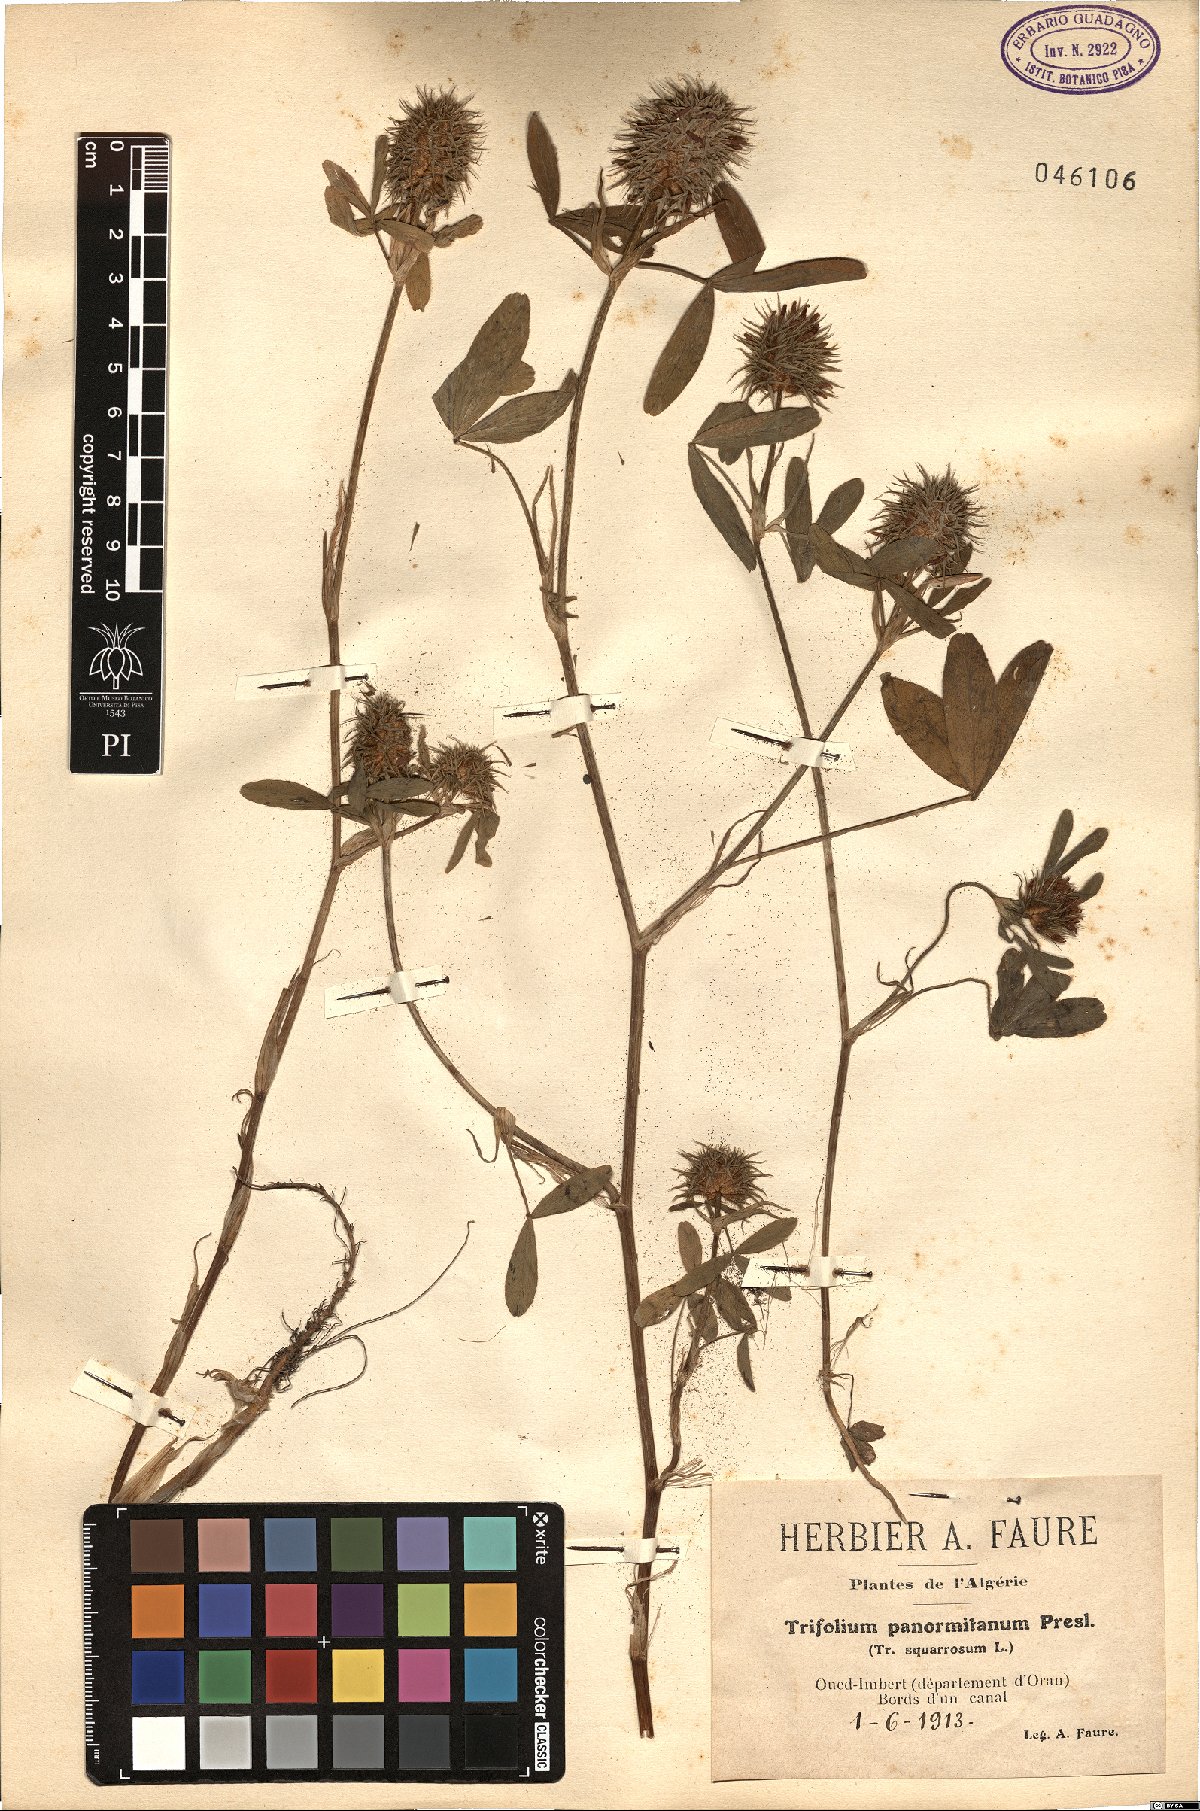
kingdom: Plantae
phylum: Tracheophyta
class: Magnoliopsida
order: Fabales
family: Fabaceae
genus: Trifolium
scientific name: Trifolium squarrosum
